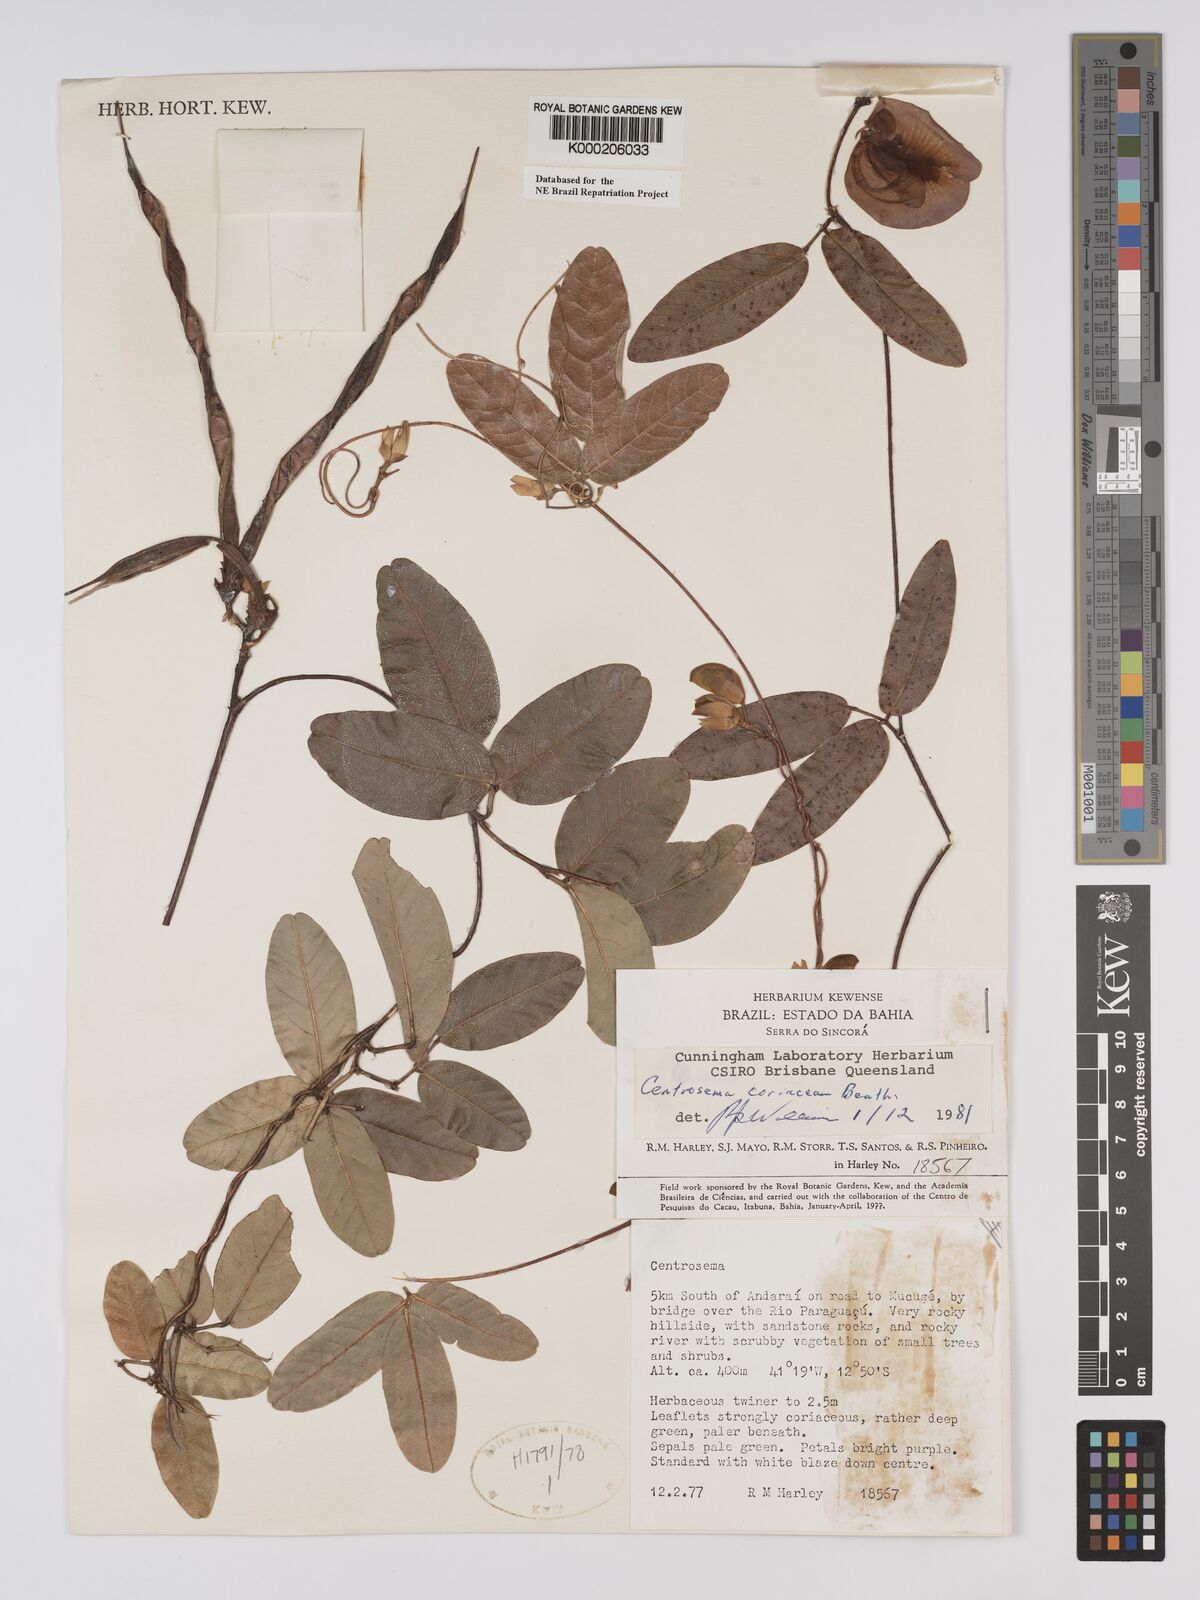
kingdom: Plantae
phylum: Tracheophyta
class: Magnoliopsida
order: Fabales
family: Fabaceae
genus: Centrosema
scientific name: Centrosema coriaceum
